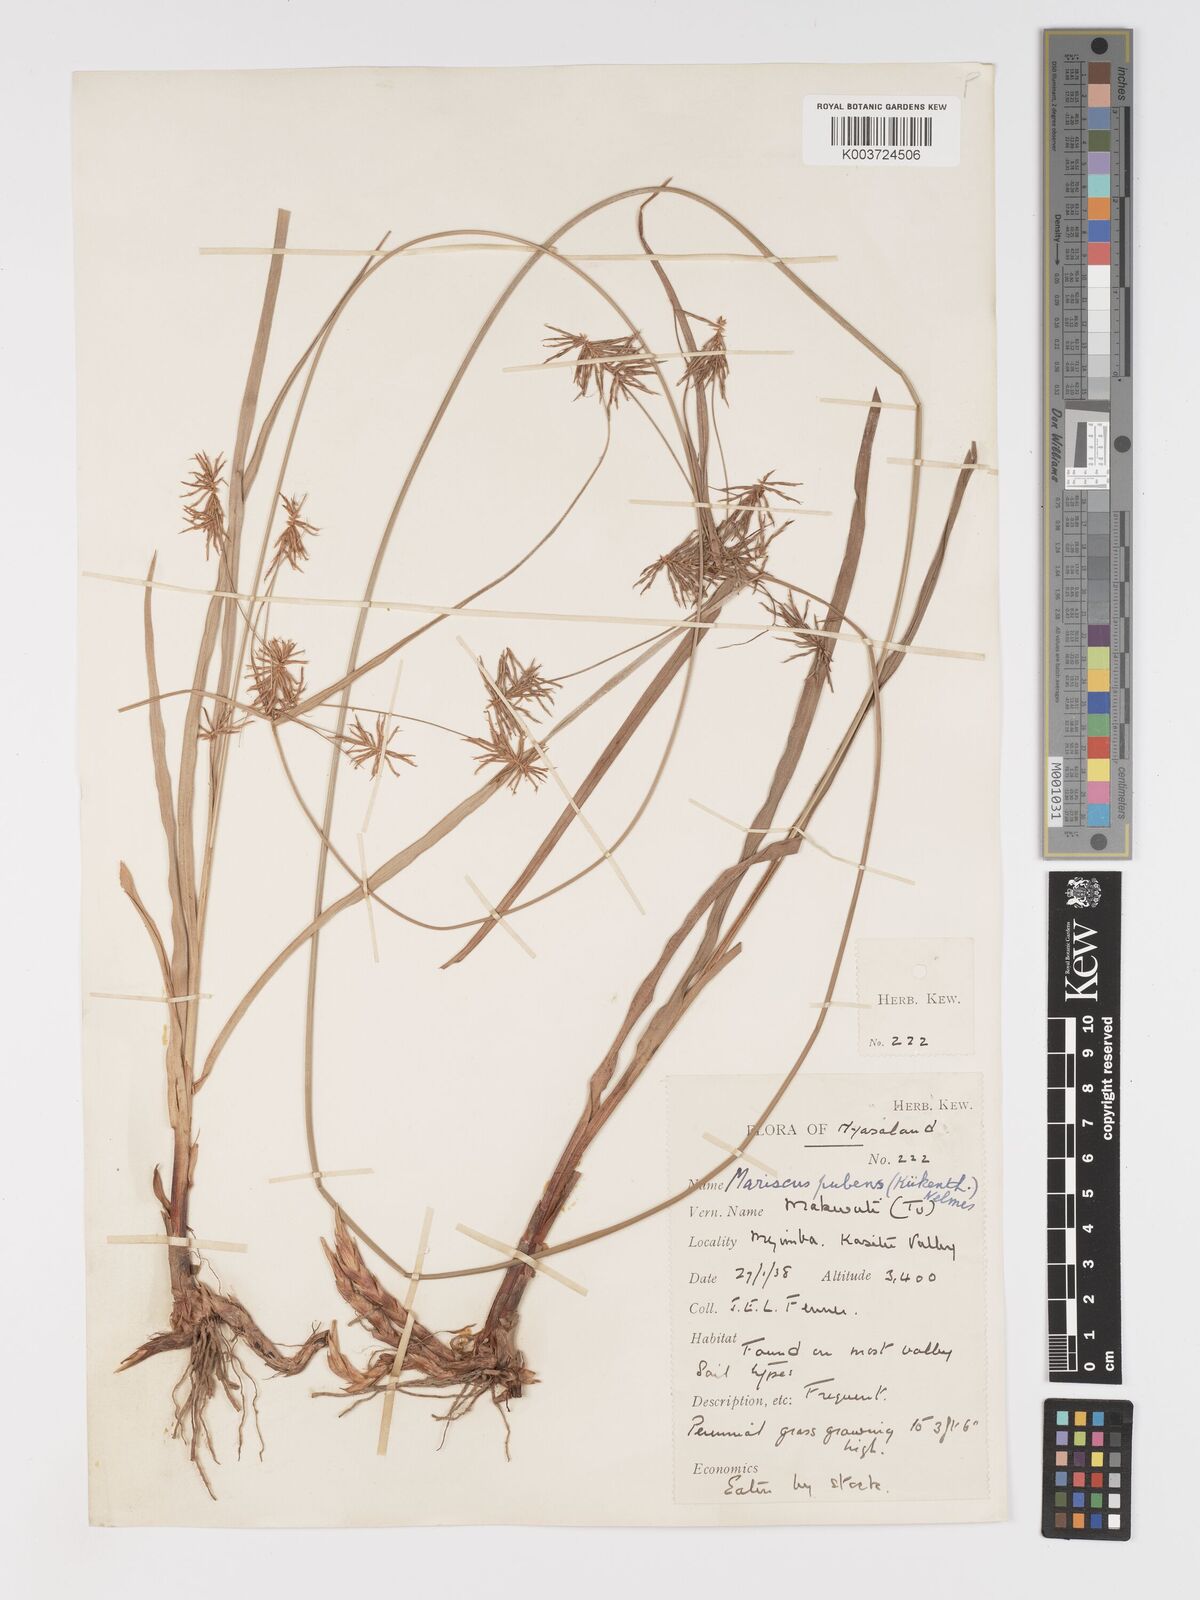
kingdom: Plantae
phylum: Tracheophyta
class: Liliopsida
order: Poales
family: Cyperaceae
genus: Cyperus
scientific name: Cyperus pubens
